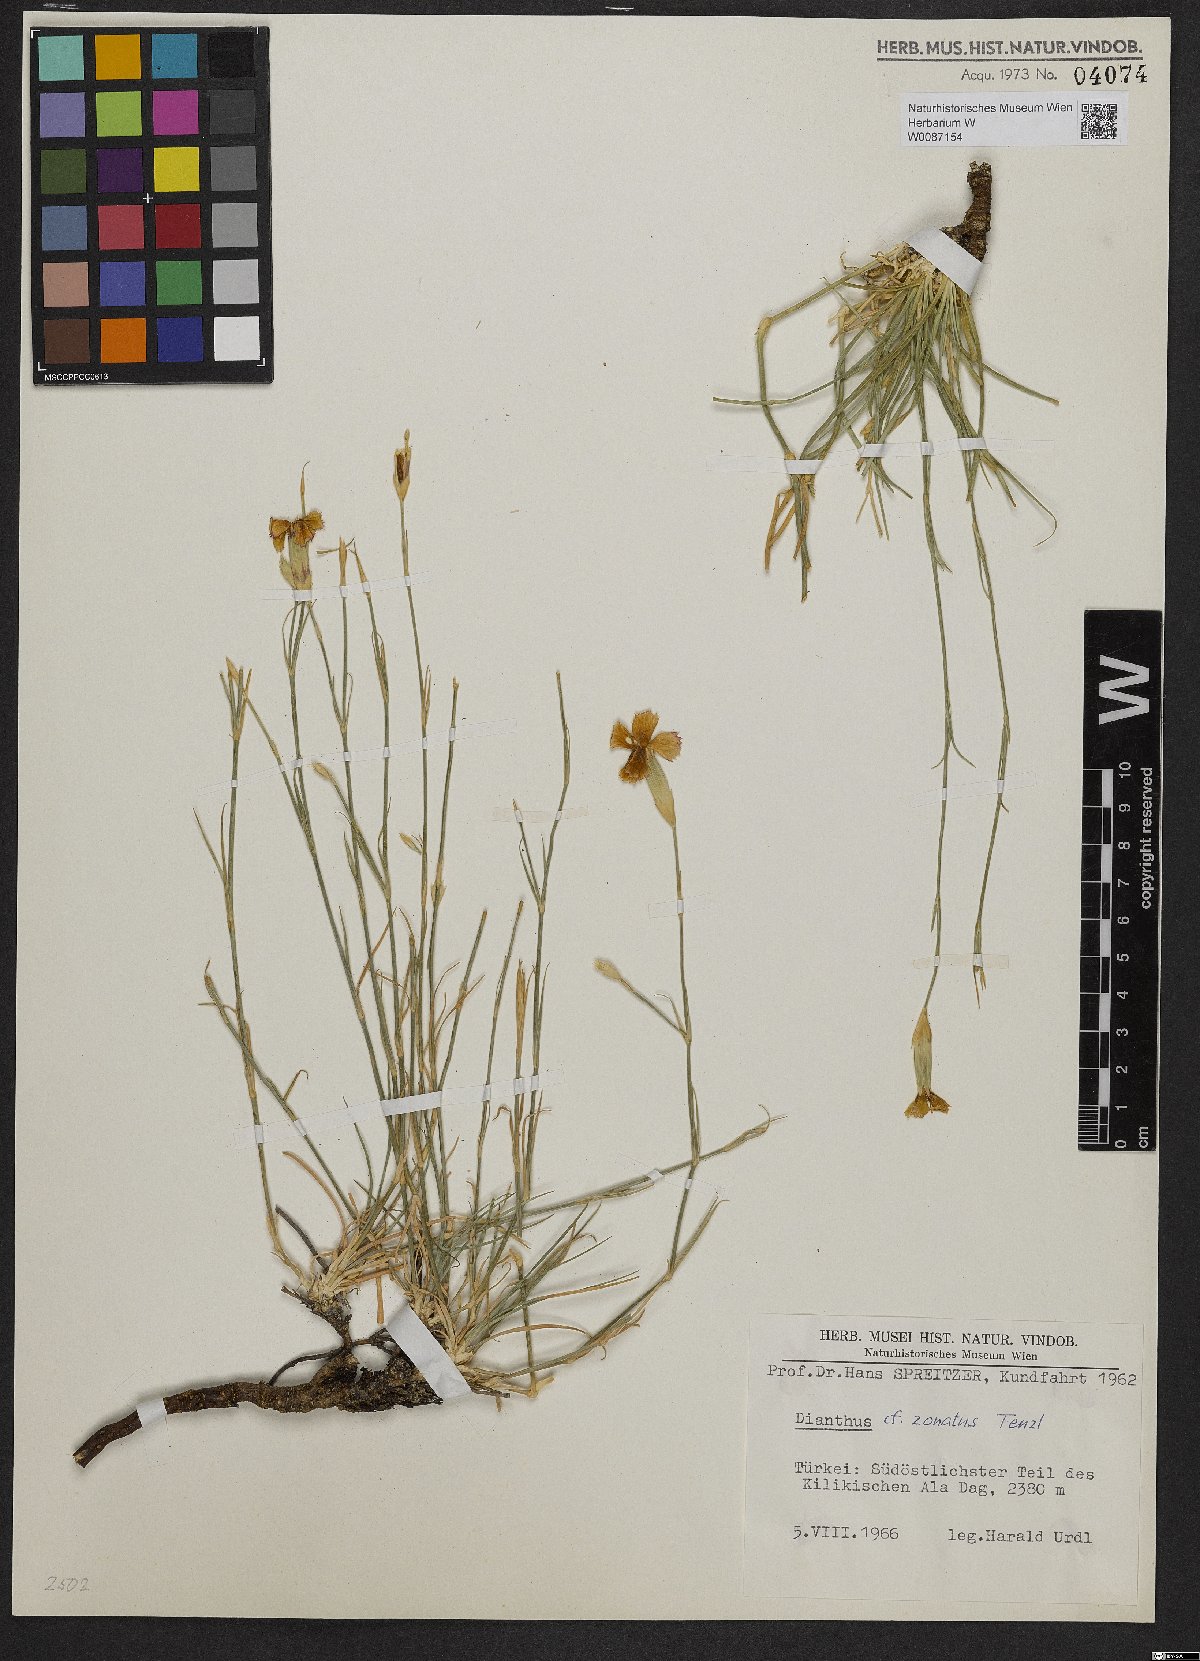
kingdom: Plantae
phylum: Tracheophyta
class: Magnoliopsida
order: Caryophyllales
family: Caryophyllaceae
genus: Dianthus
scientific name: Dianthus zonatus
